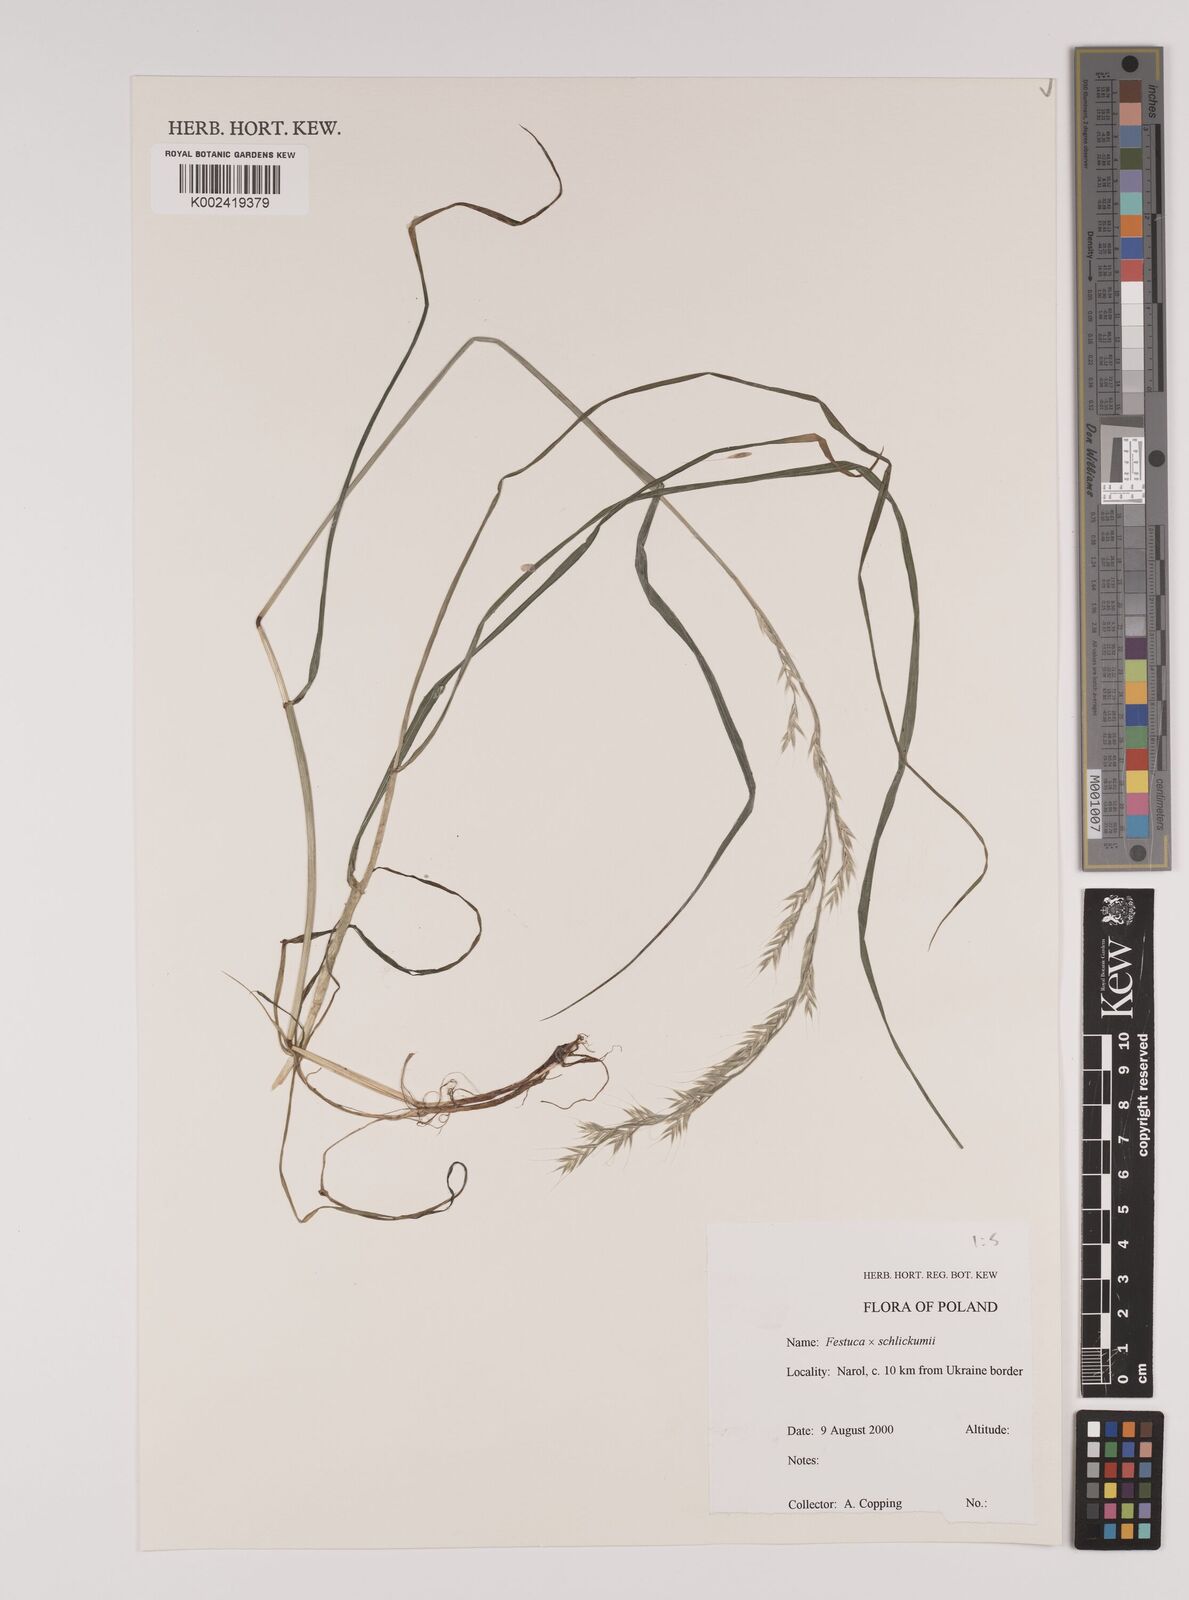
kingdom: Plantae
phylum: Tracheophyta
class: Liliopsida
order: Poales
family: Poaceae
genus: Lolium
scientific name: Lolium giganteum
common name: Giant fescue
